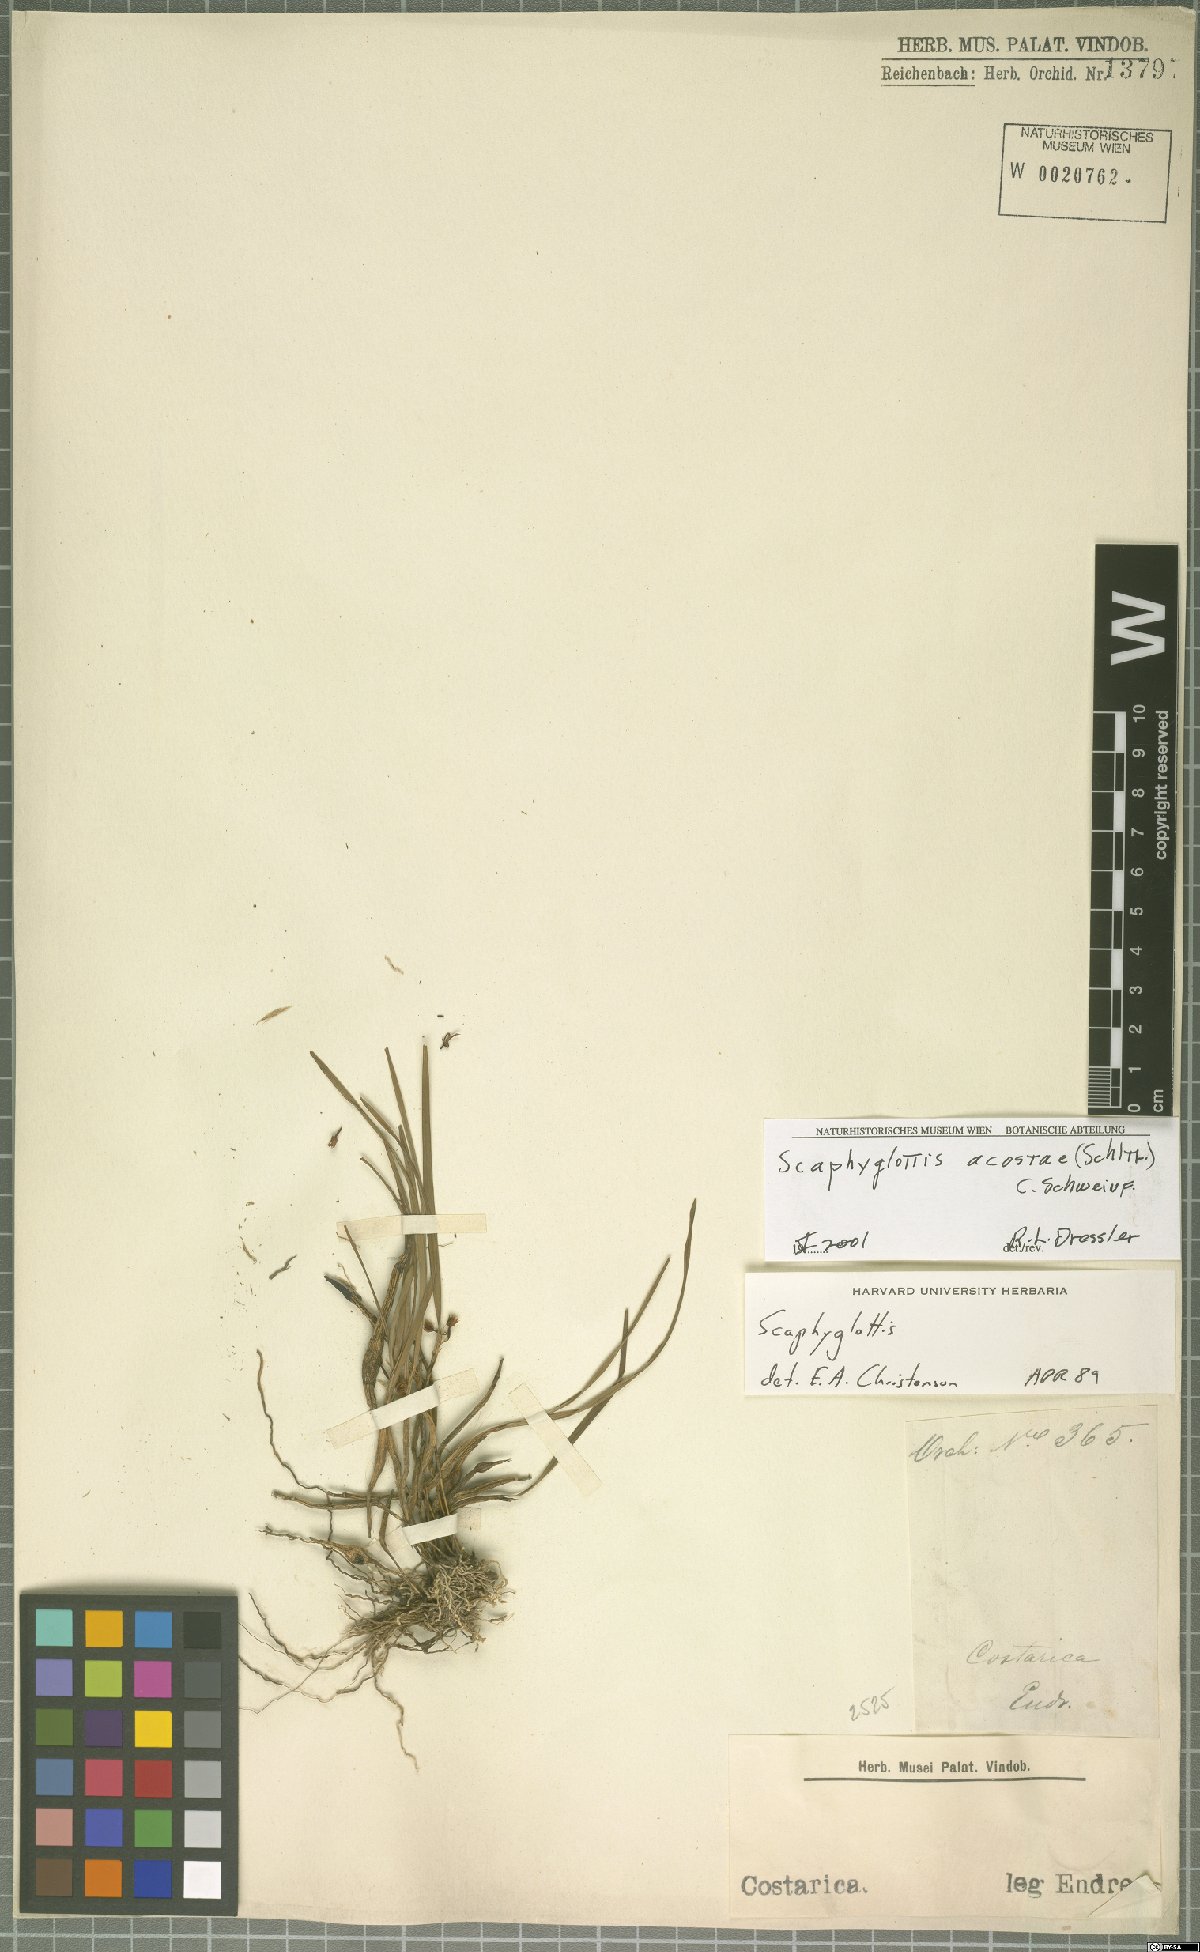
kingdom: Plantae
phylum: Tracheophyta
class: Liliopsida
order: Asparagales
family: Orchidaceae
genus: Scaphyglottis
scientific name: Scaphyglottis acostae
